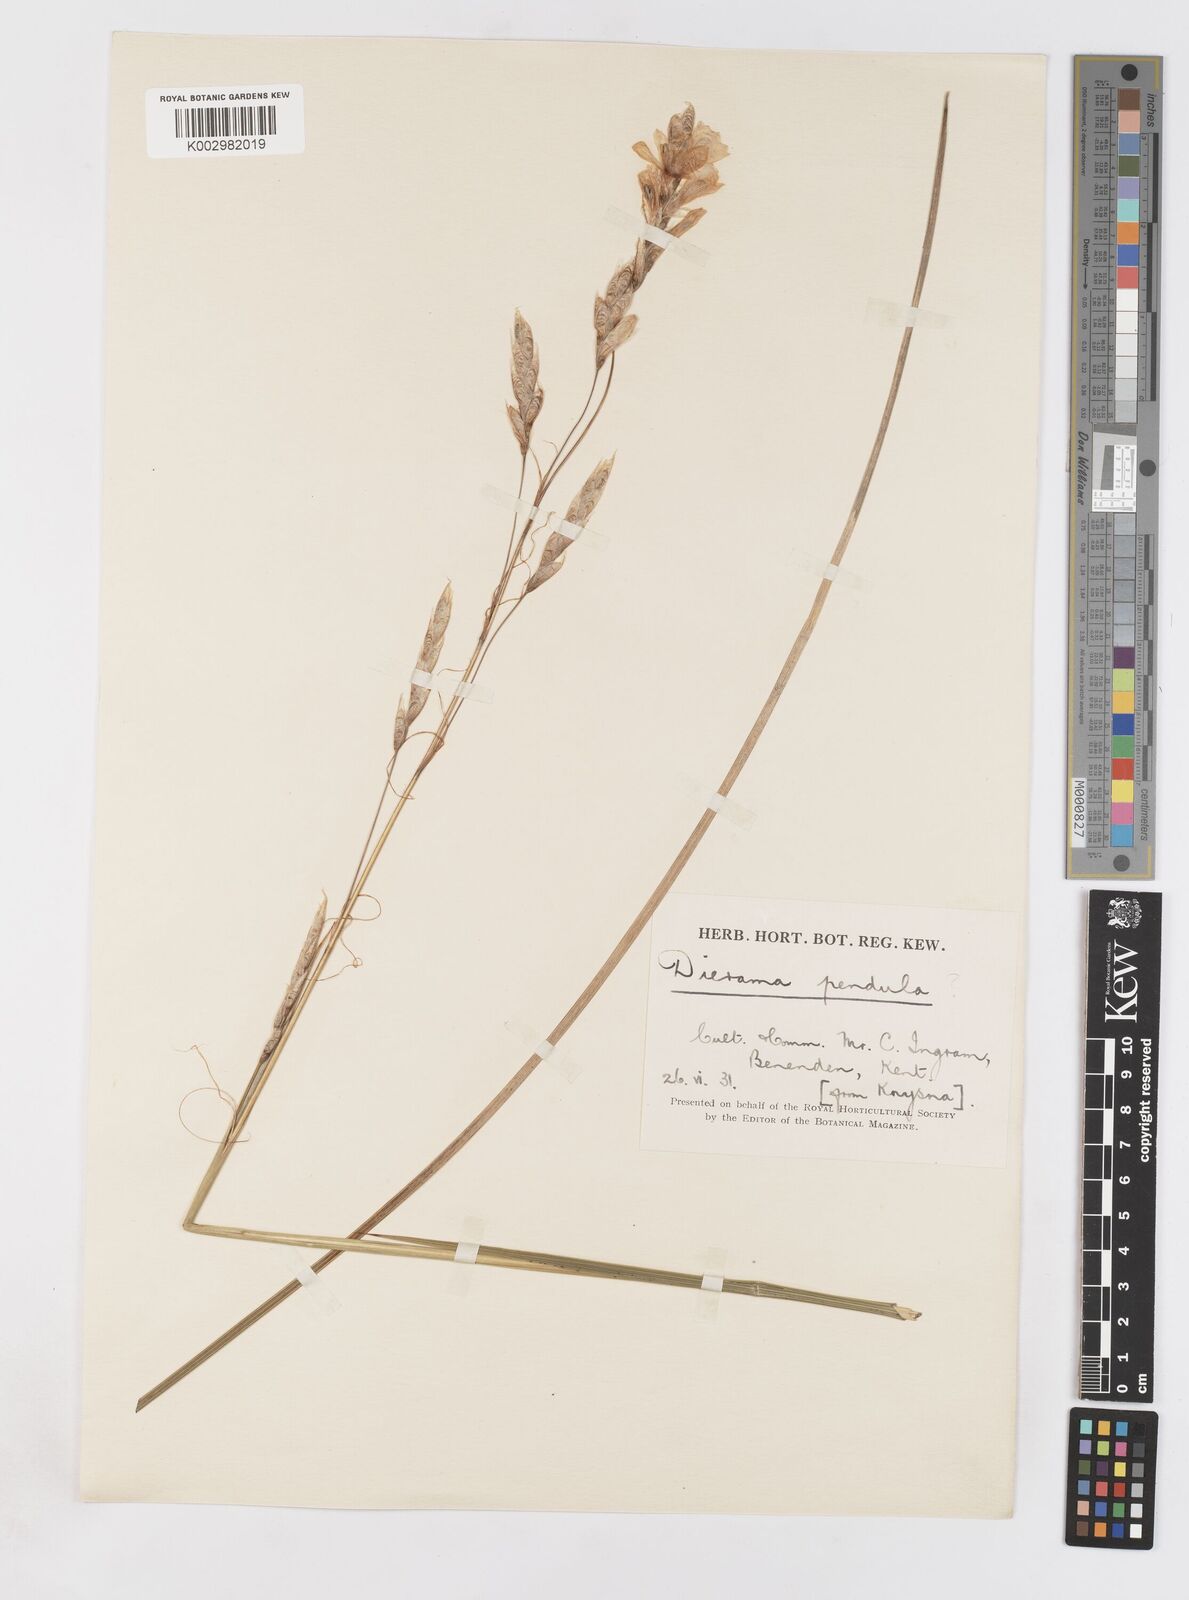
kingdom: Plantae
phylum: Tracheophyta
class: Liliopsida
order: Asparagales
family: Iridaceae
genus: Dierama
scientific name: Dierama
